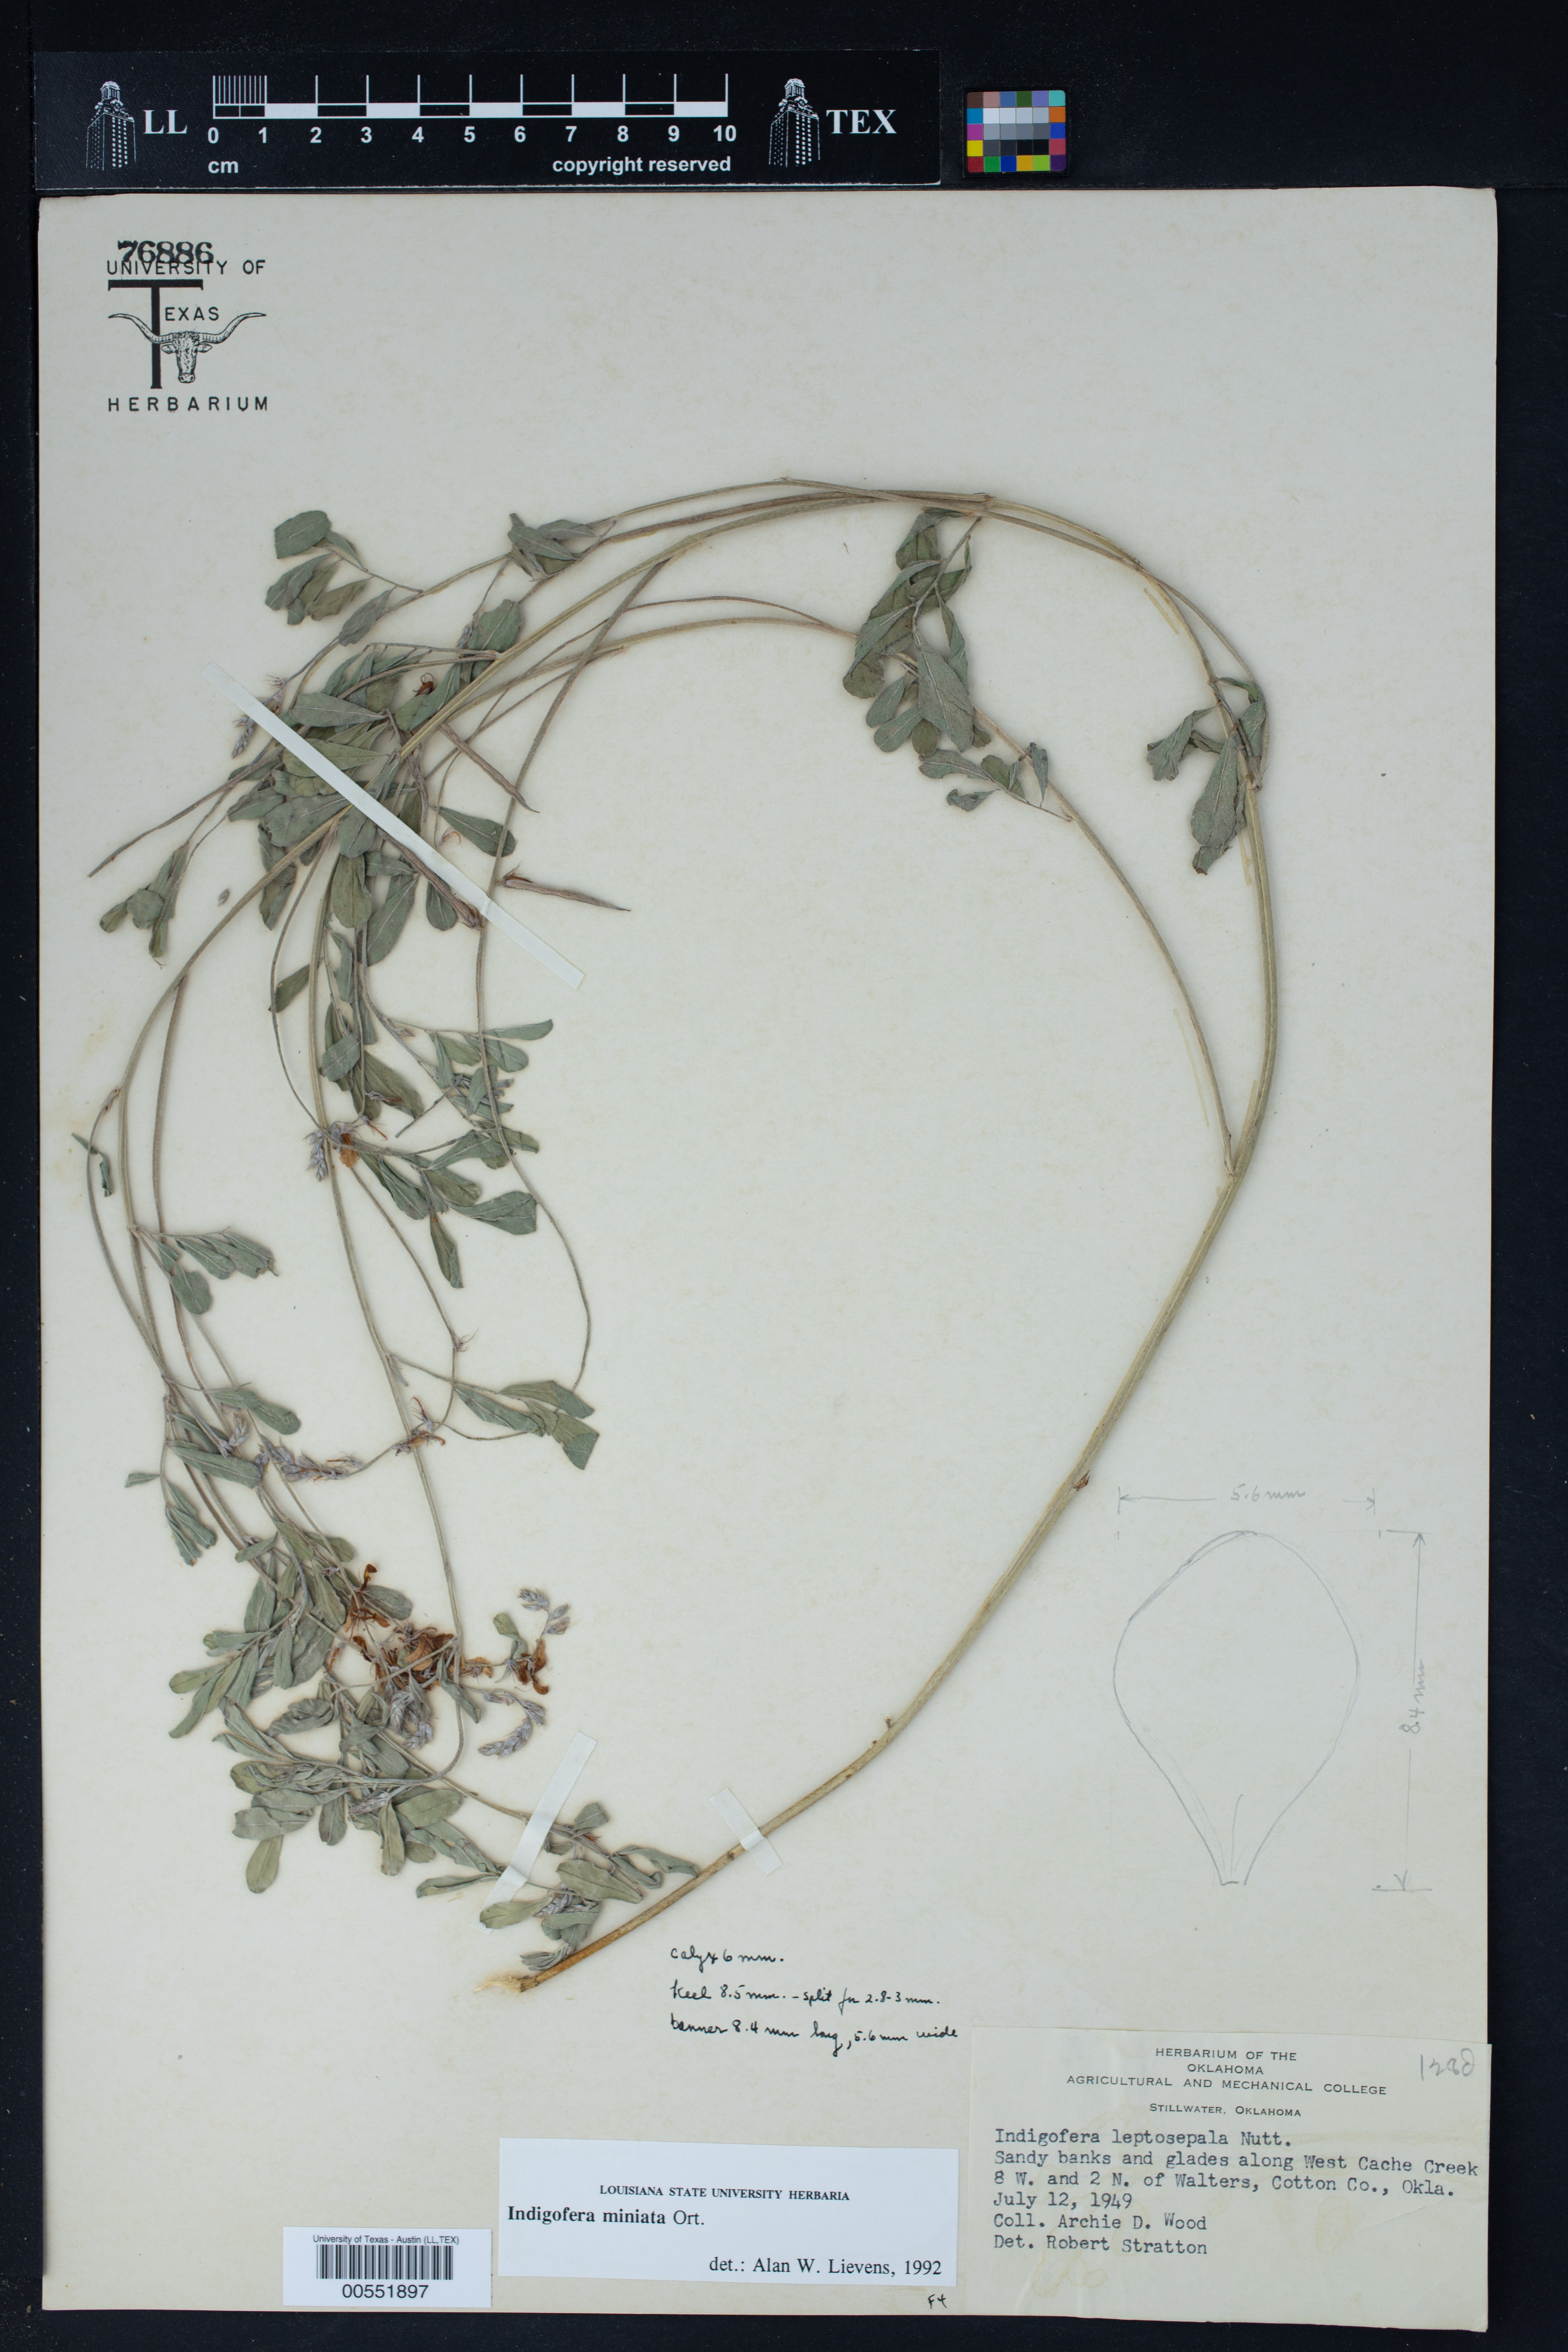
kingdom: Plantae
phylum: Tracheophyta
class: Magnoliopsida
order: Fabales
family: Fabaceae
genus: Indigofera
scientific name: Indigofera miniata
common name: Coast indigo
